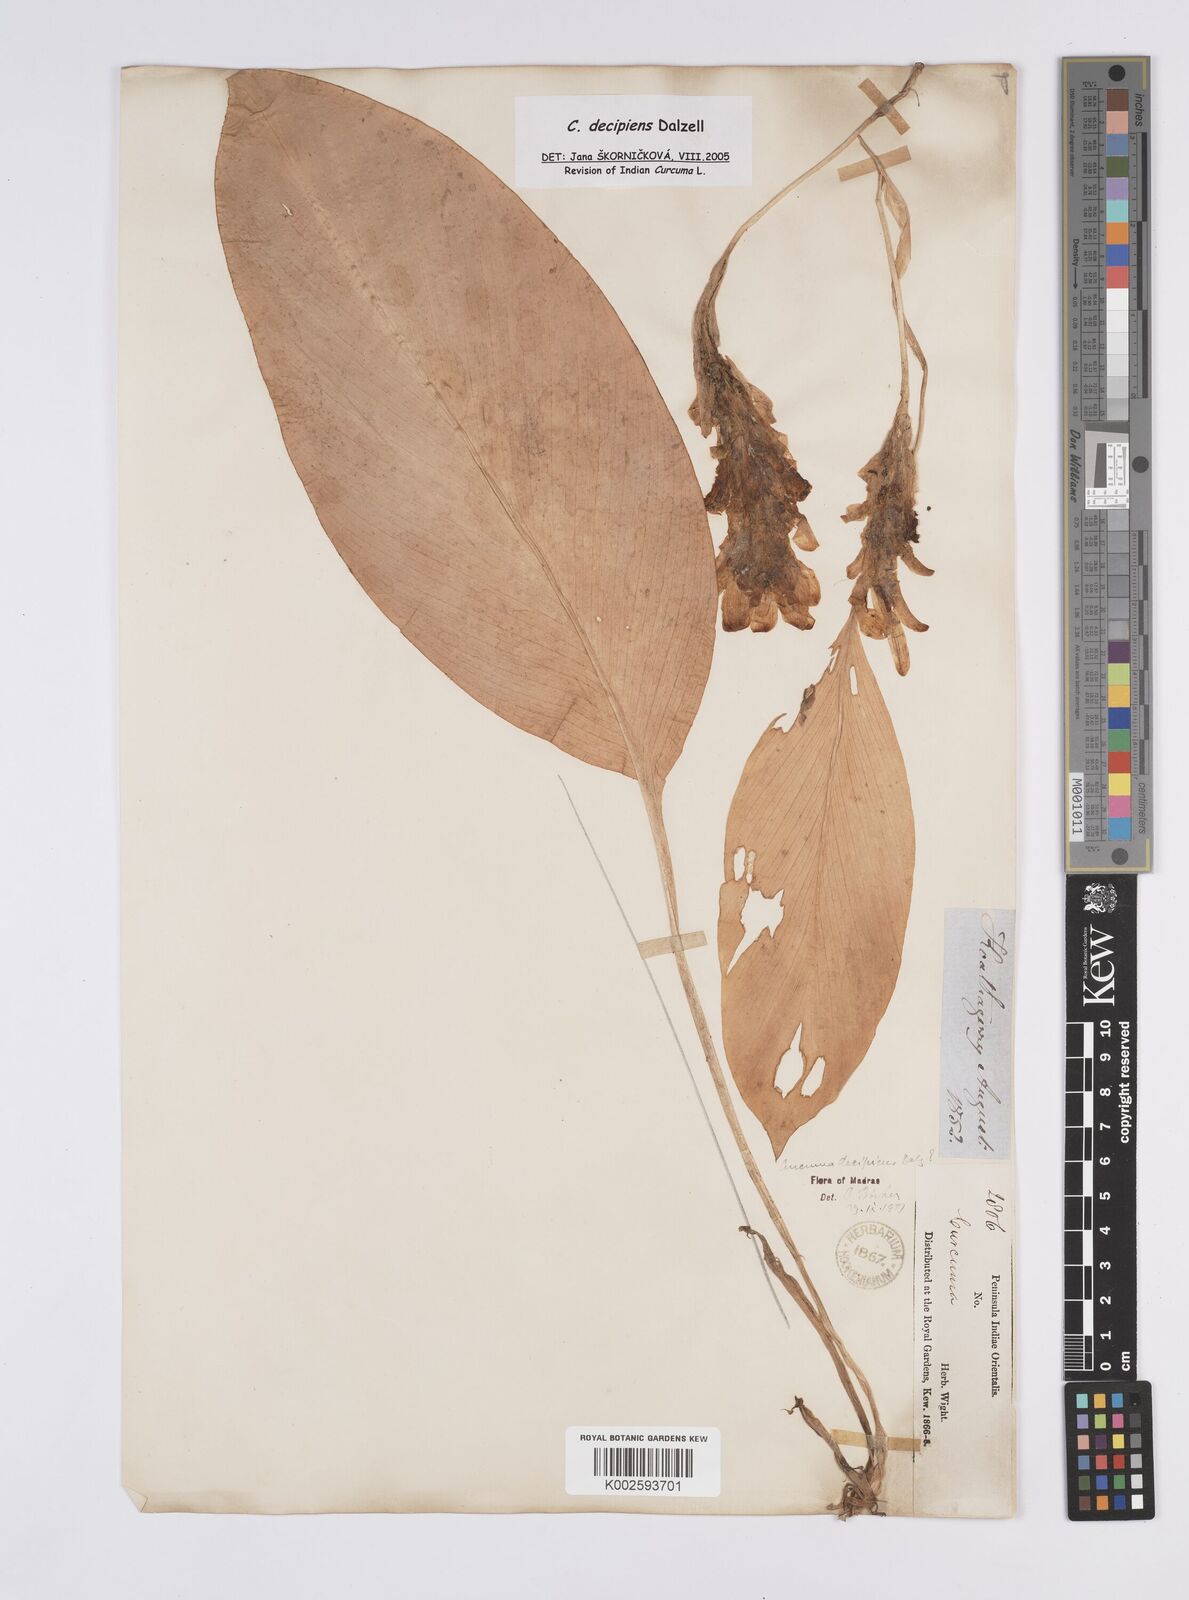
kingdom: Plantae
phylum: Tracheophyta
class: Liliopsida
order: Zingiberales
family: Zingiberaceae
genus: Curcuma
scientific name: Curcuma decipiens
